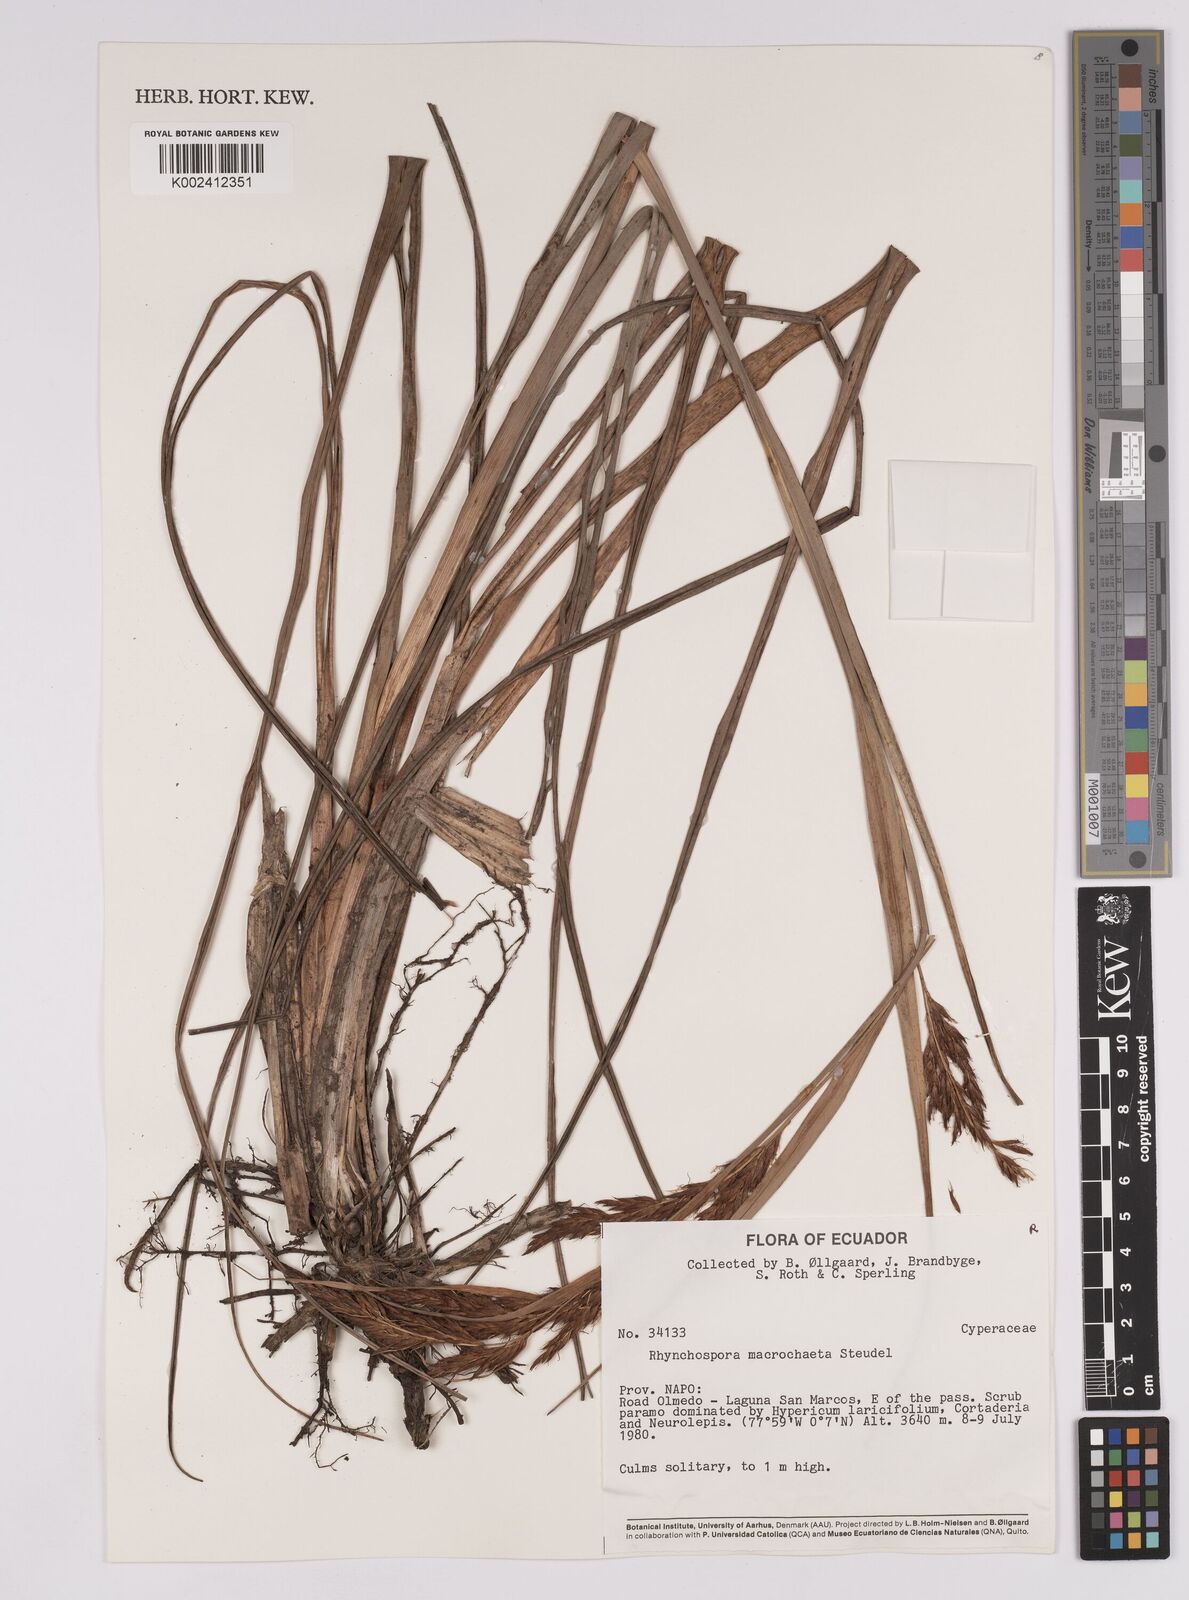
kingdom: Plantae
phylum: Tracheophyta
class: Liliopsida
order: Poales
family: Cyperaceae
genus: Rhynchospora
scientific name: Rhynchospora macrochaeta
